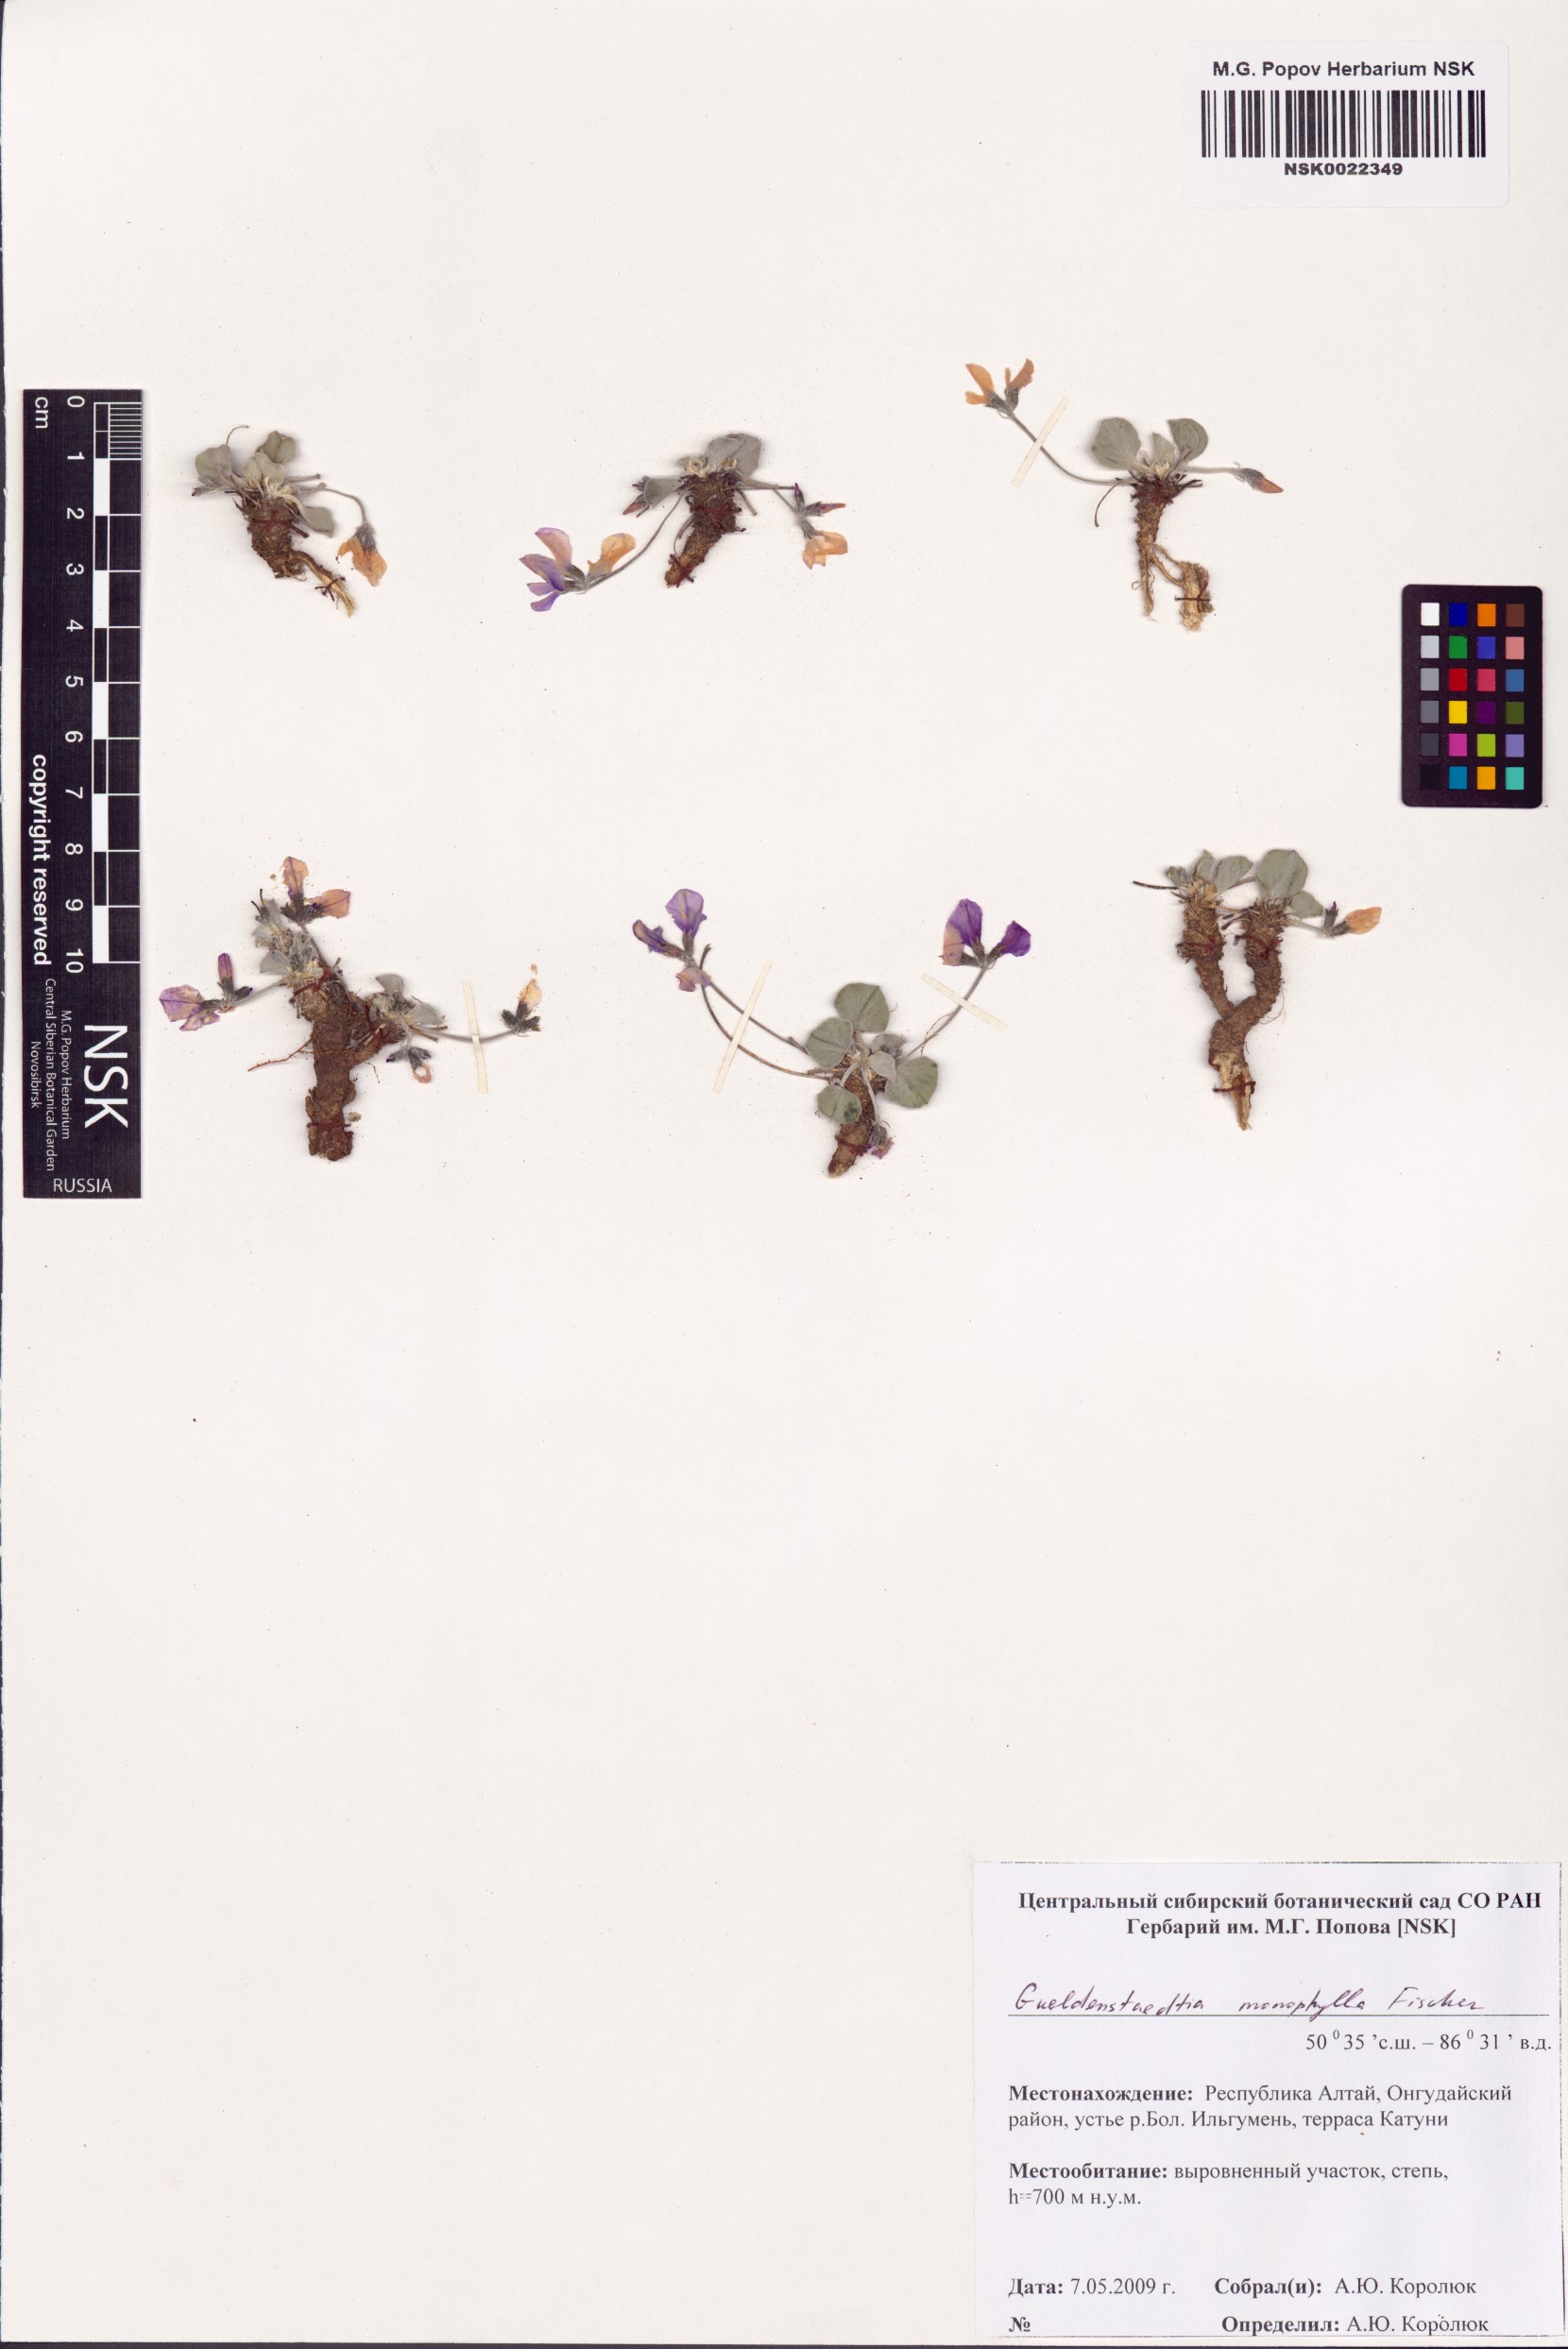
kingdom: Plantae
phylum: Tracheophyta
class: Magnoliopsida
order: Fabales
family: Fabaceae
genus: Gueldenstaedtia
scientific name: Gueldenstaedtia monophylla
